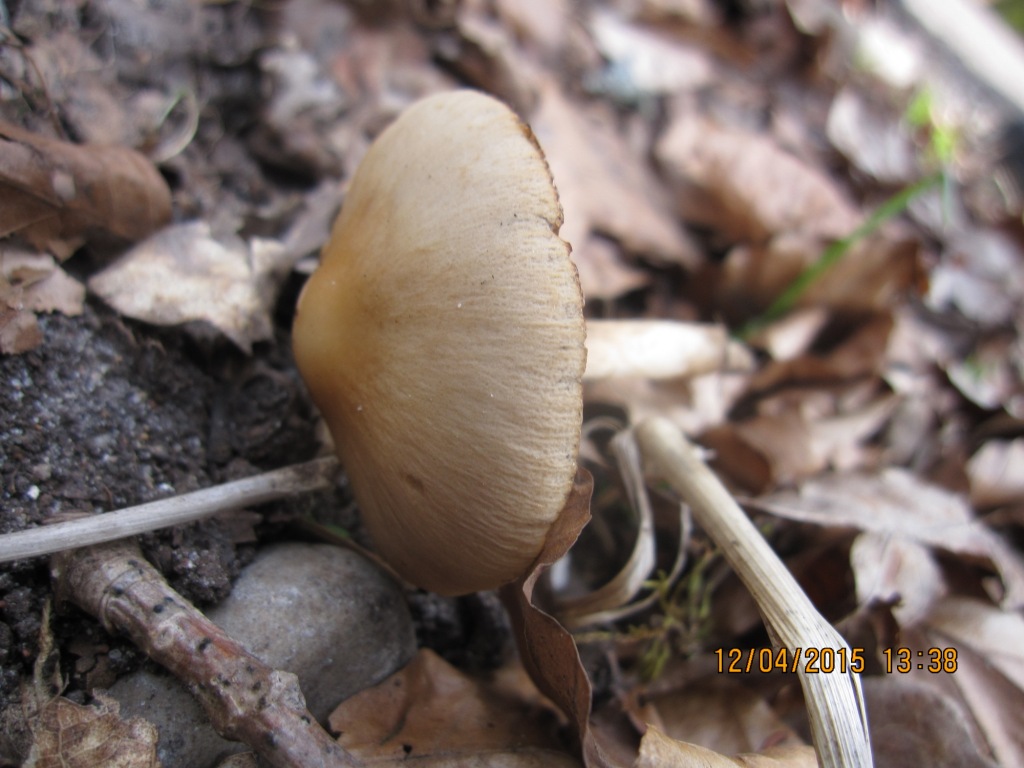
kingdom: Fungi
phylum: Basidiomycota
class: Agaricomycetes
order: Agaricales
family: Psathyrellaceae
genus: Psathyrella
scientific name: Psathyrella spadiceogrisea
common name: gråbrun mørkhat
